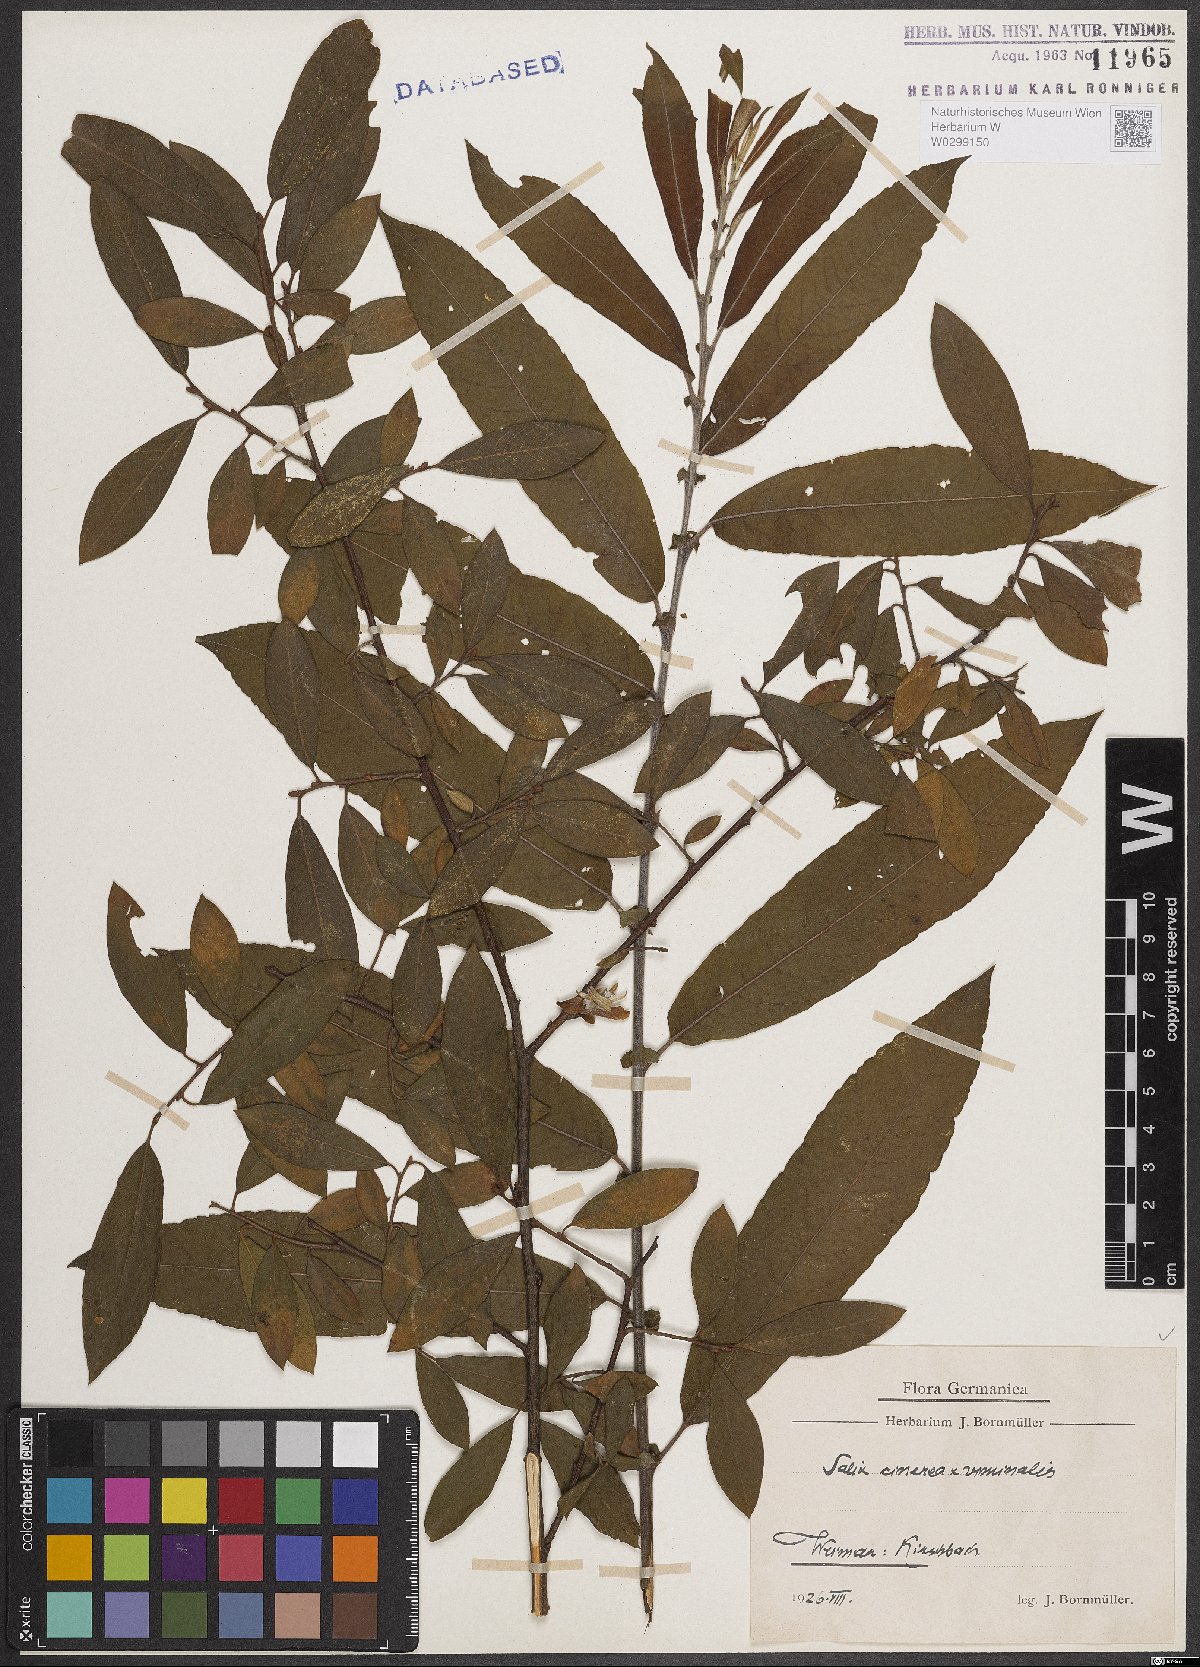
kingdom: Plantae
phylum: Tracheophyta
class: Magnoliopsida
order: Malpighiales
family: Salicaceae
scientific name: Salicaceae
